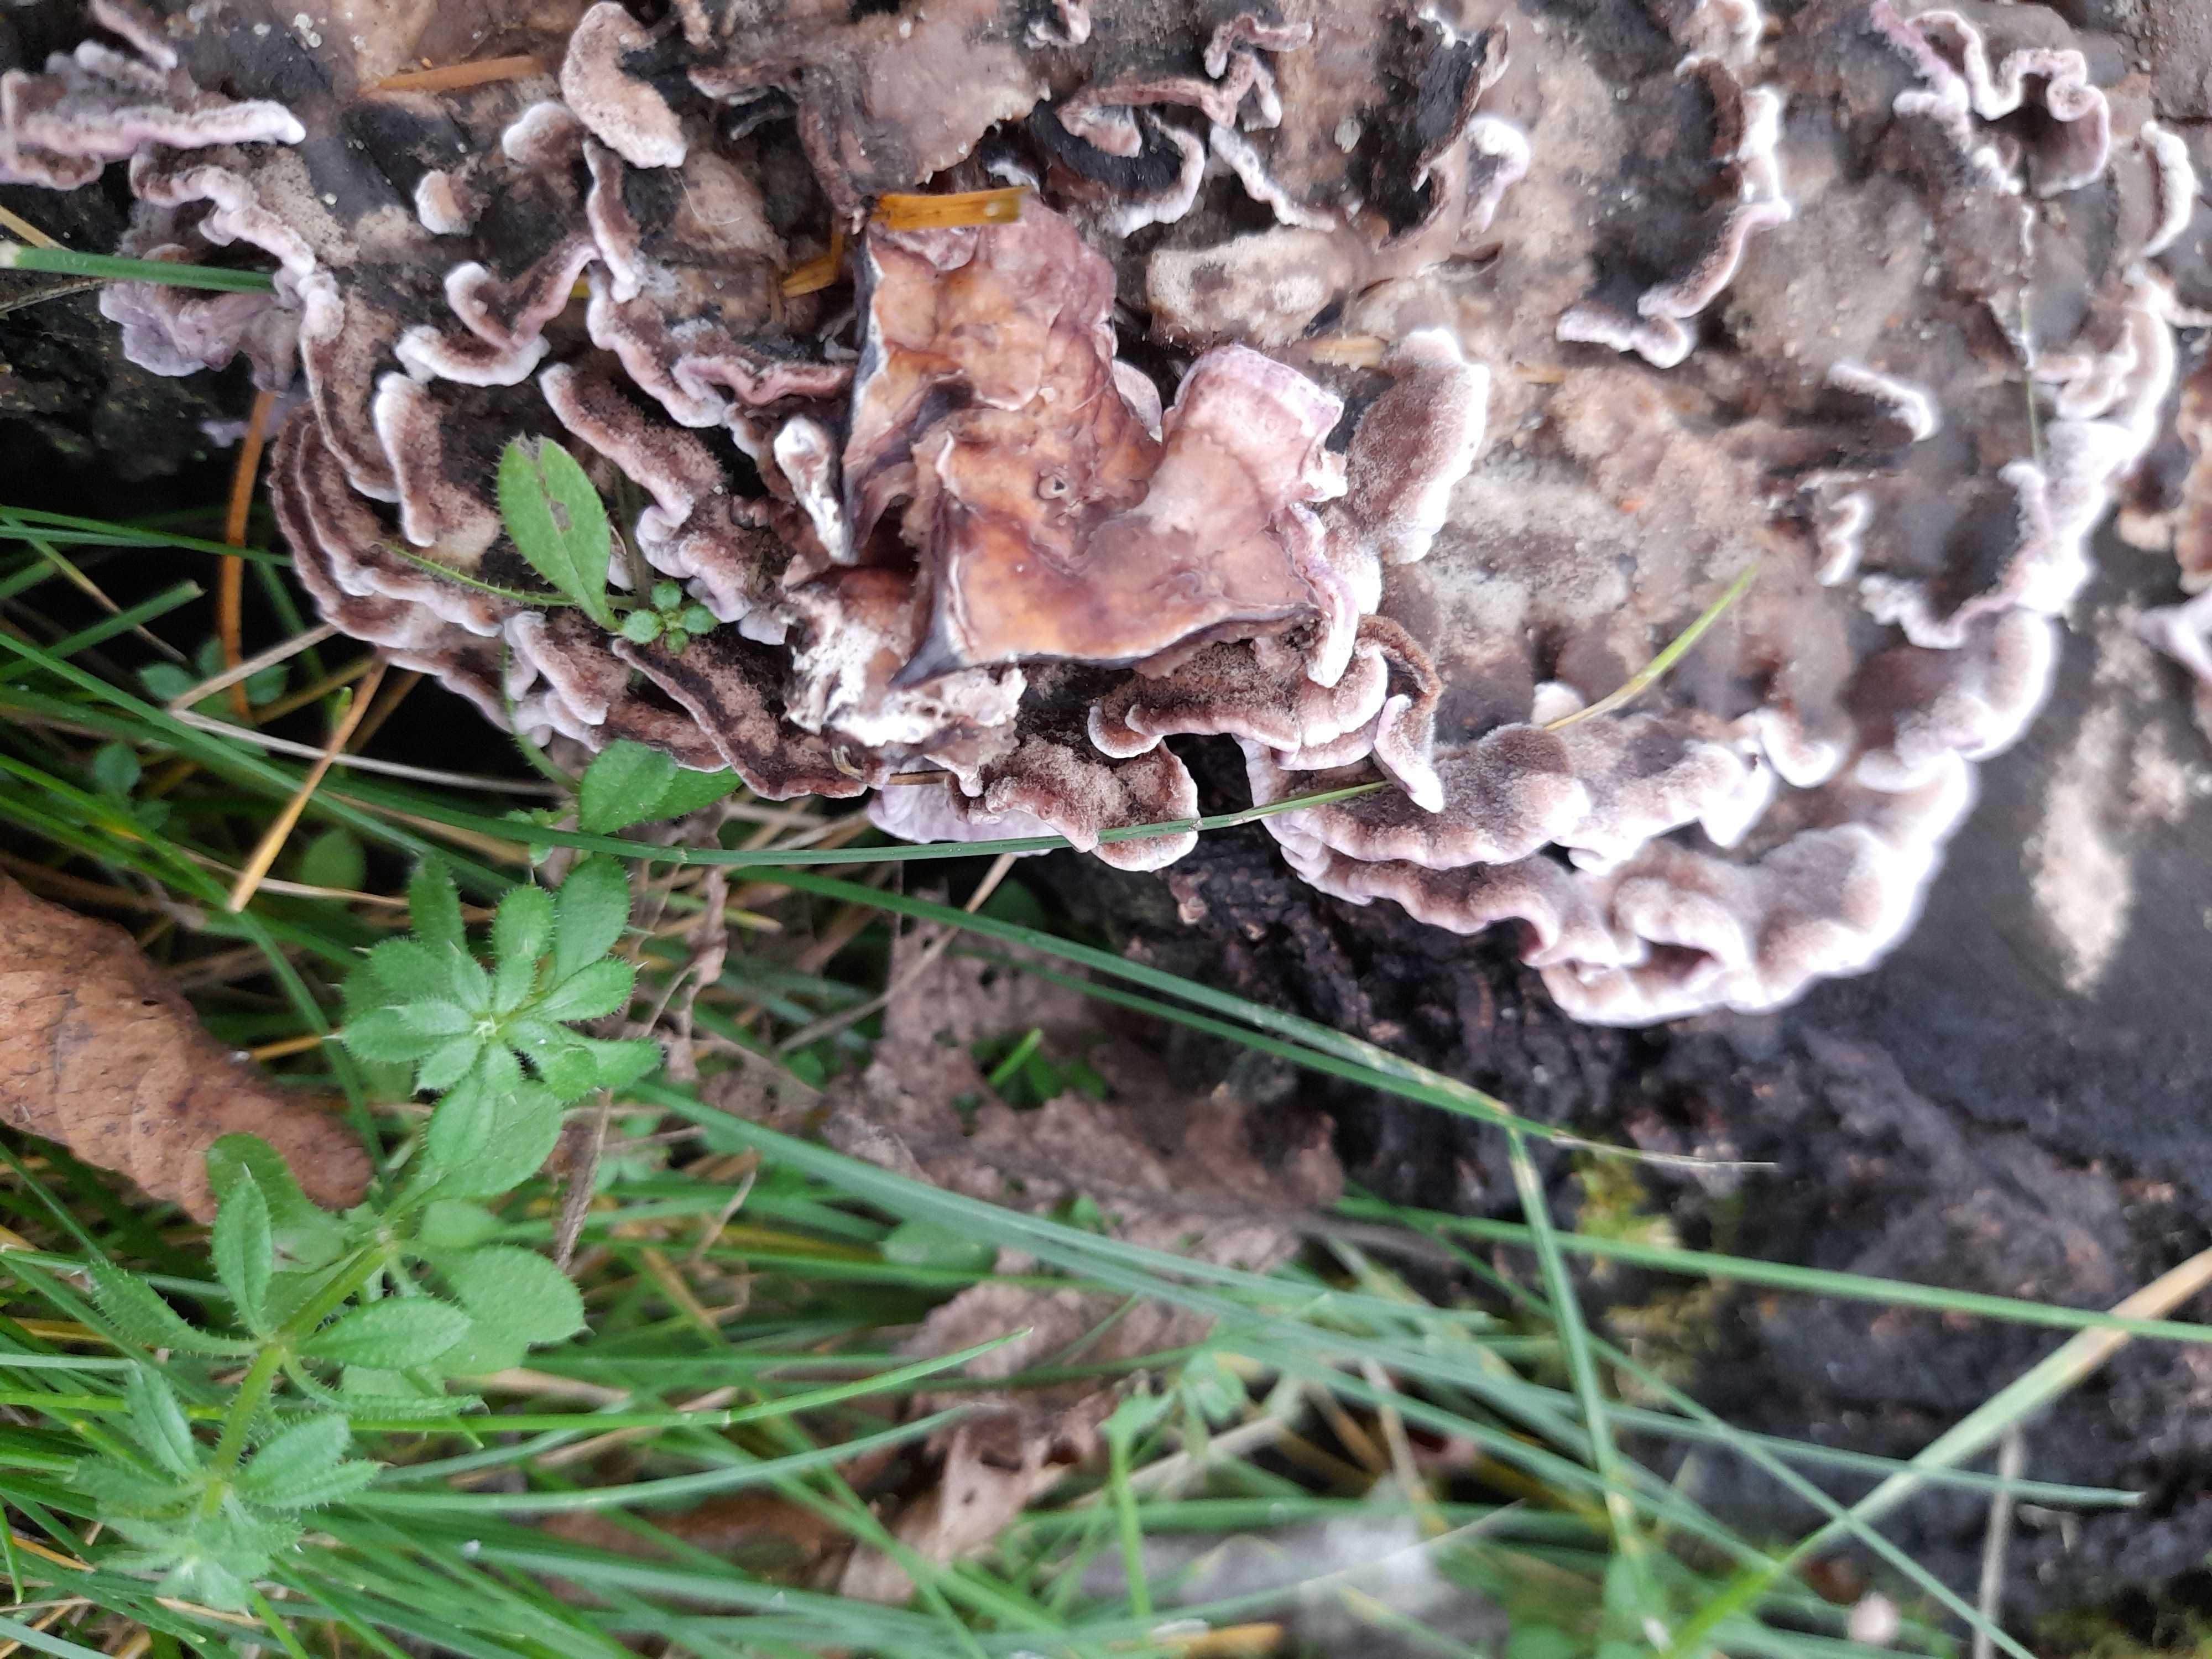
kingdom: Fungi
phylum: Basidiomycota
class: Agaricomycetes
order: Agaricales
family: Cyphellaceae
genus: Chondrostereum
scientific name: Chondrostereum purpureum
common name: purpurlædersvamp
